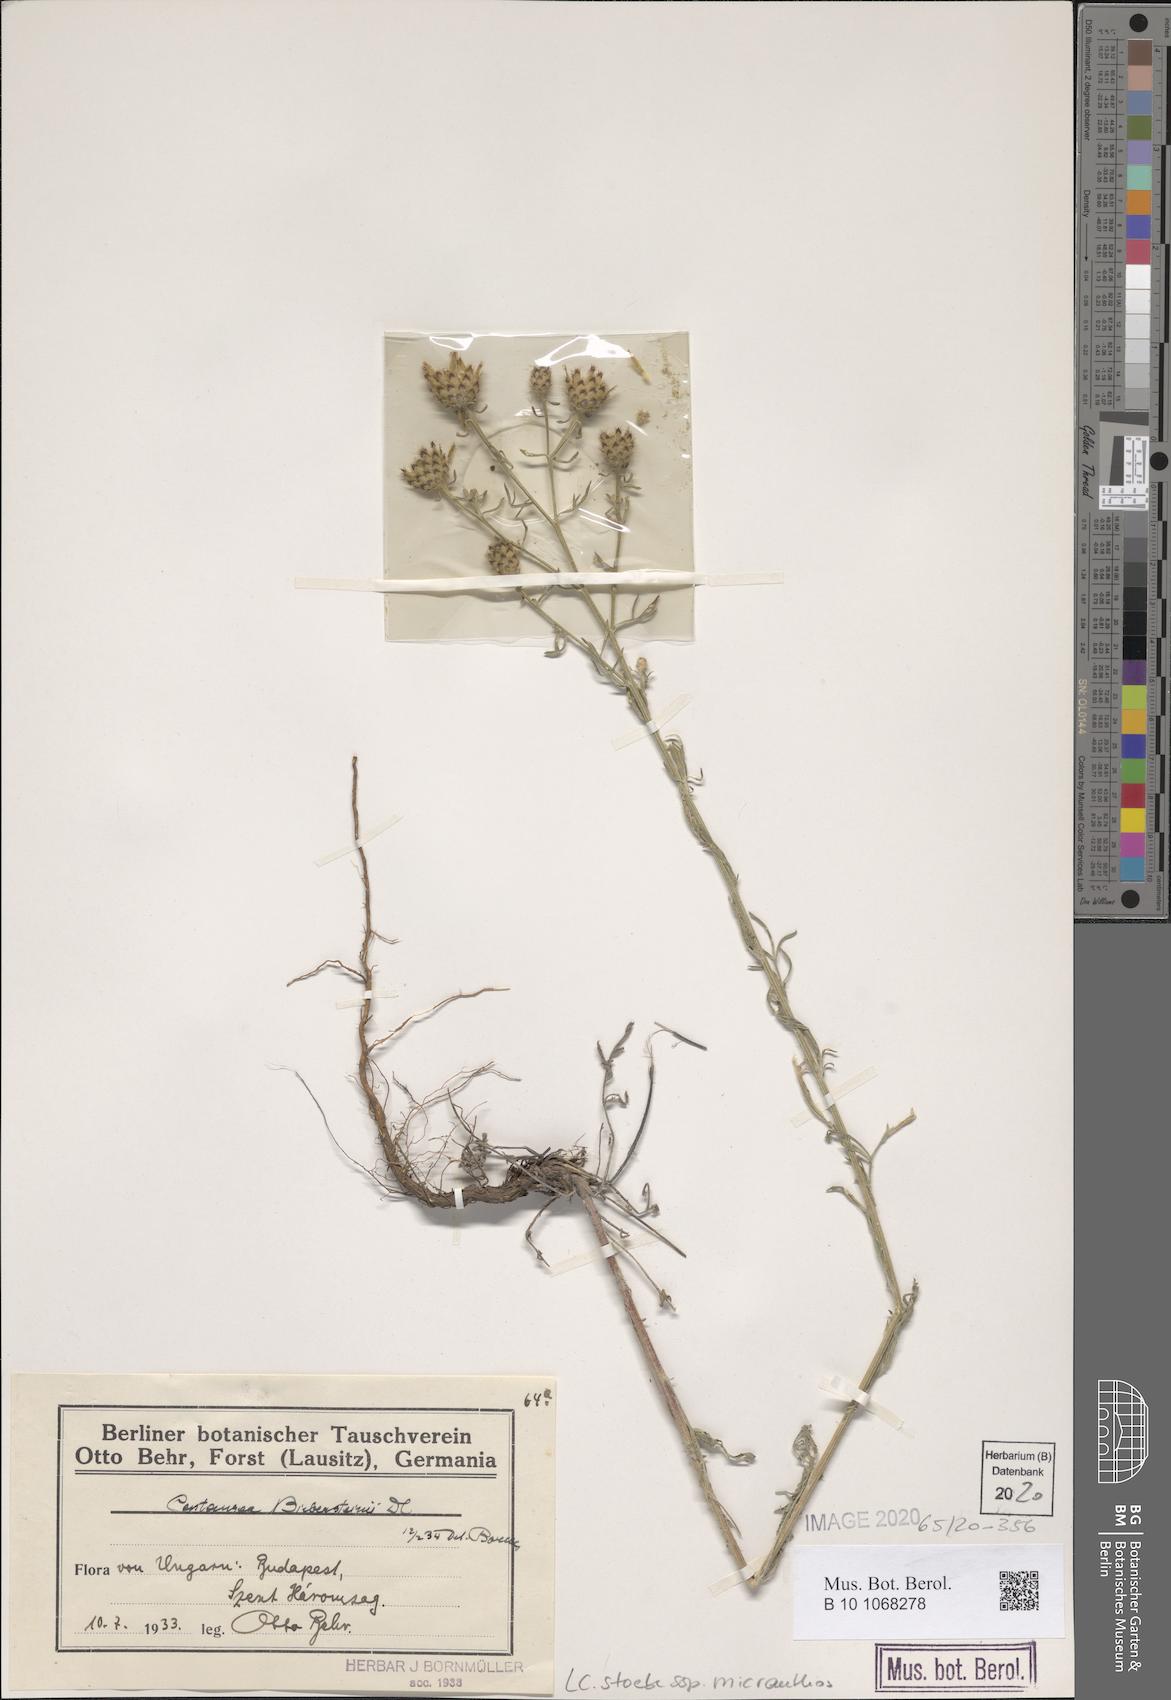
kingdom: Plantae
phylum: Tracheophyta
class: Magnoliopsida
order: Asterales
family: Asteraceae
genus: Centaurea
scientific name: Centaurea australis
